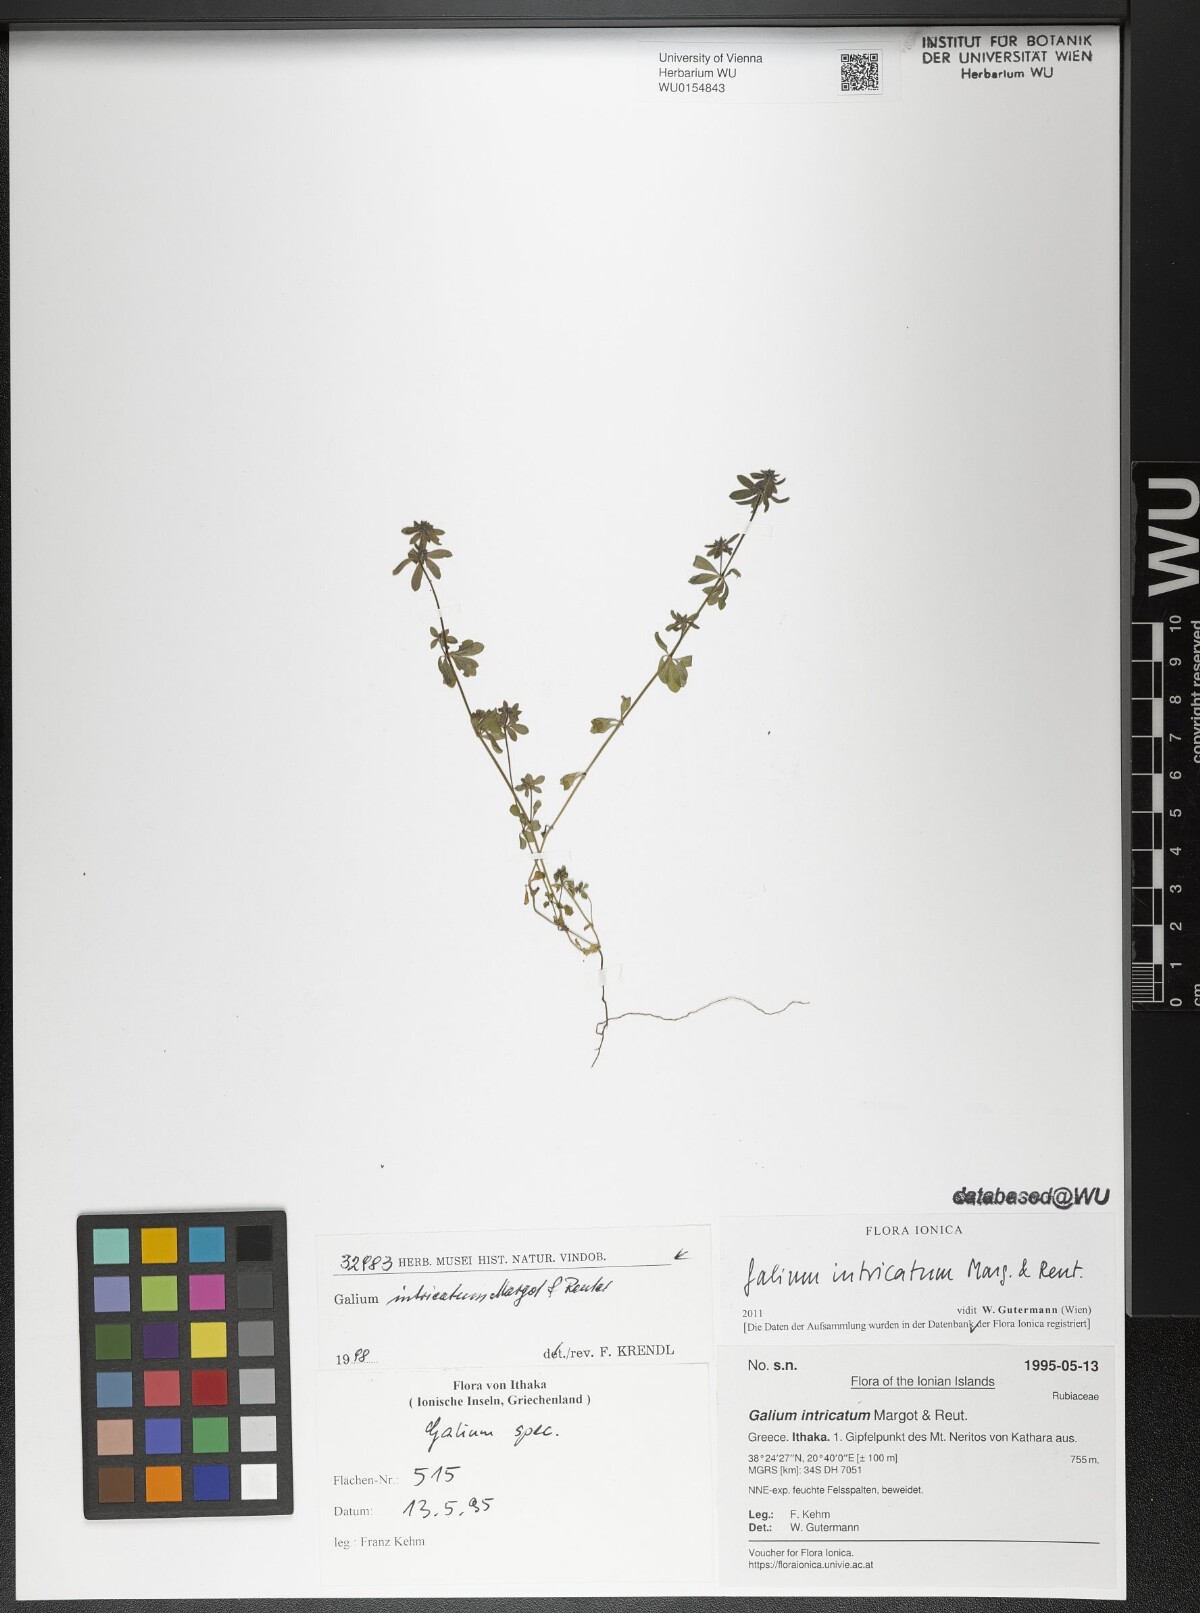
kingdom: Plantae
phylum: Tracheophyta
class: Magnoliopsida
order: Gentianales
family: Rubiaceae
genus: Galium
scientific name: Galium intricatum
